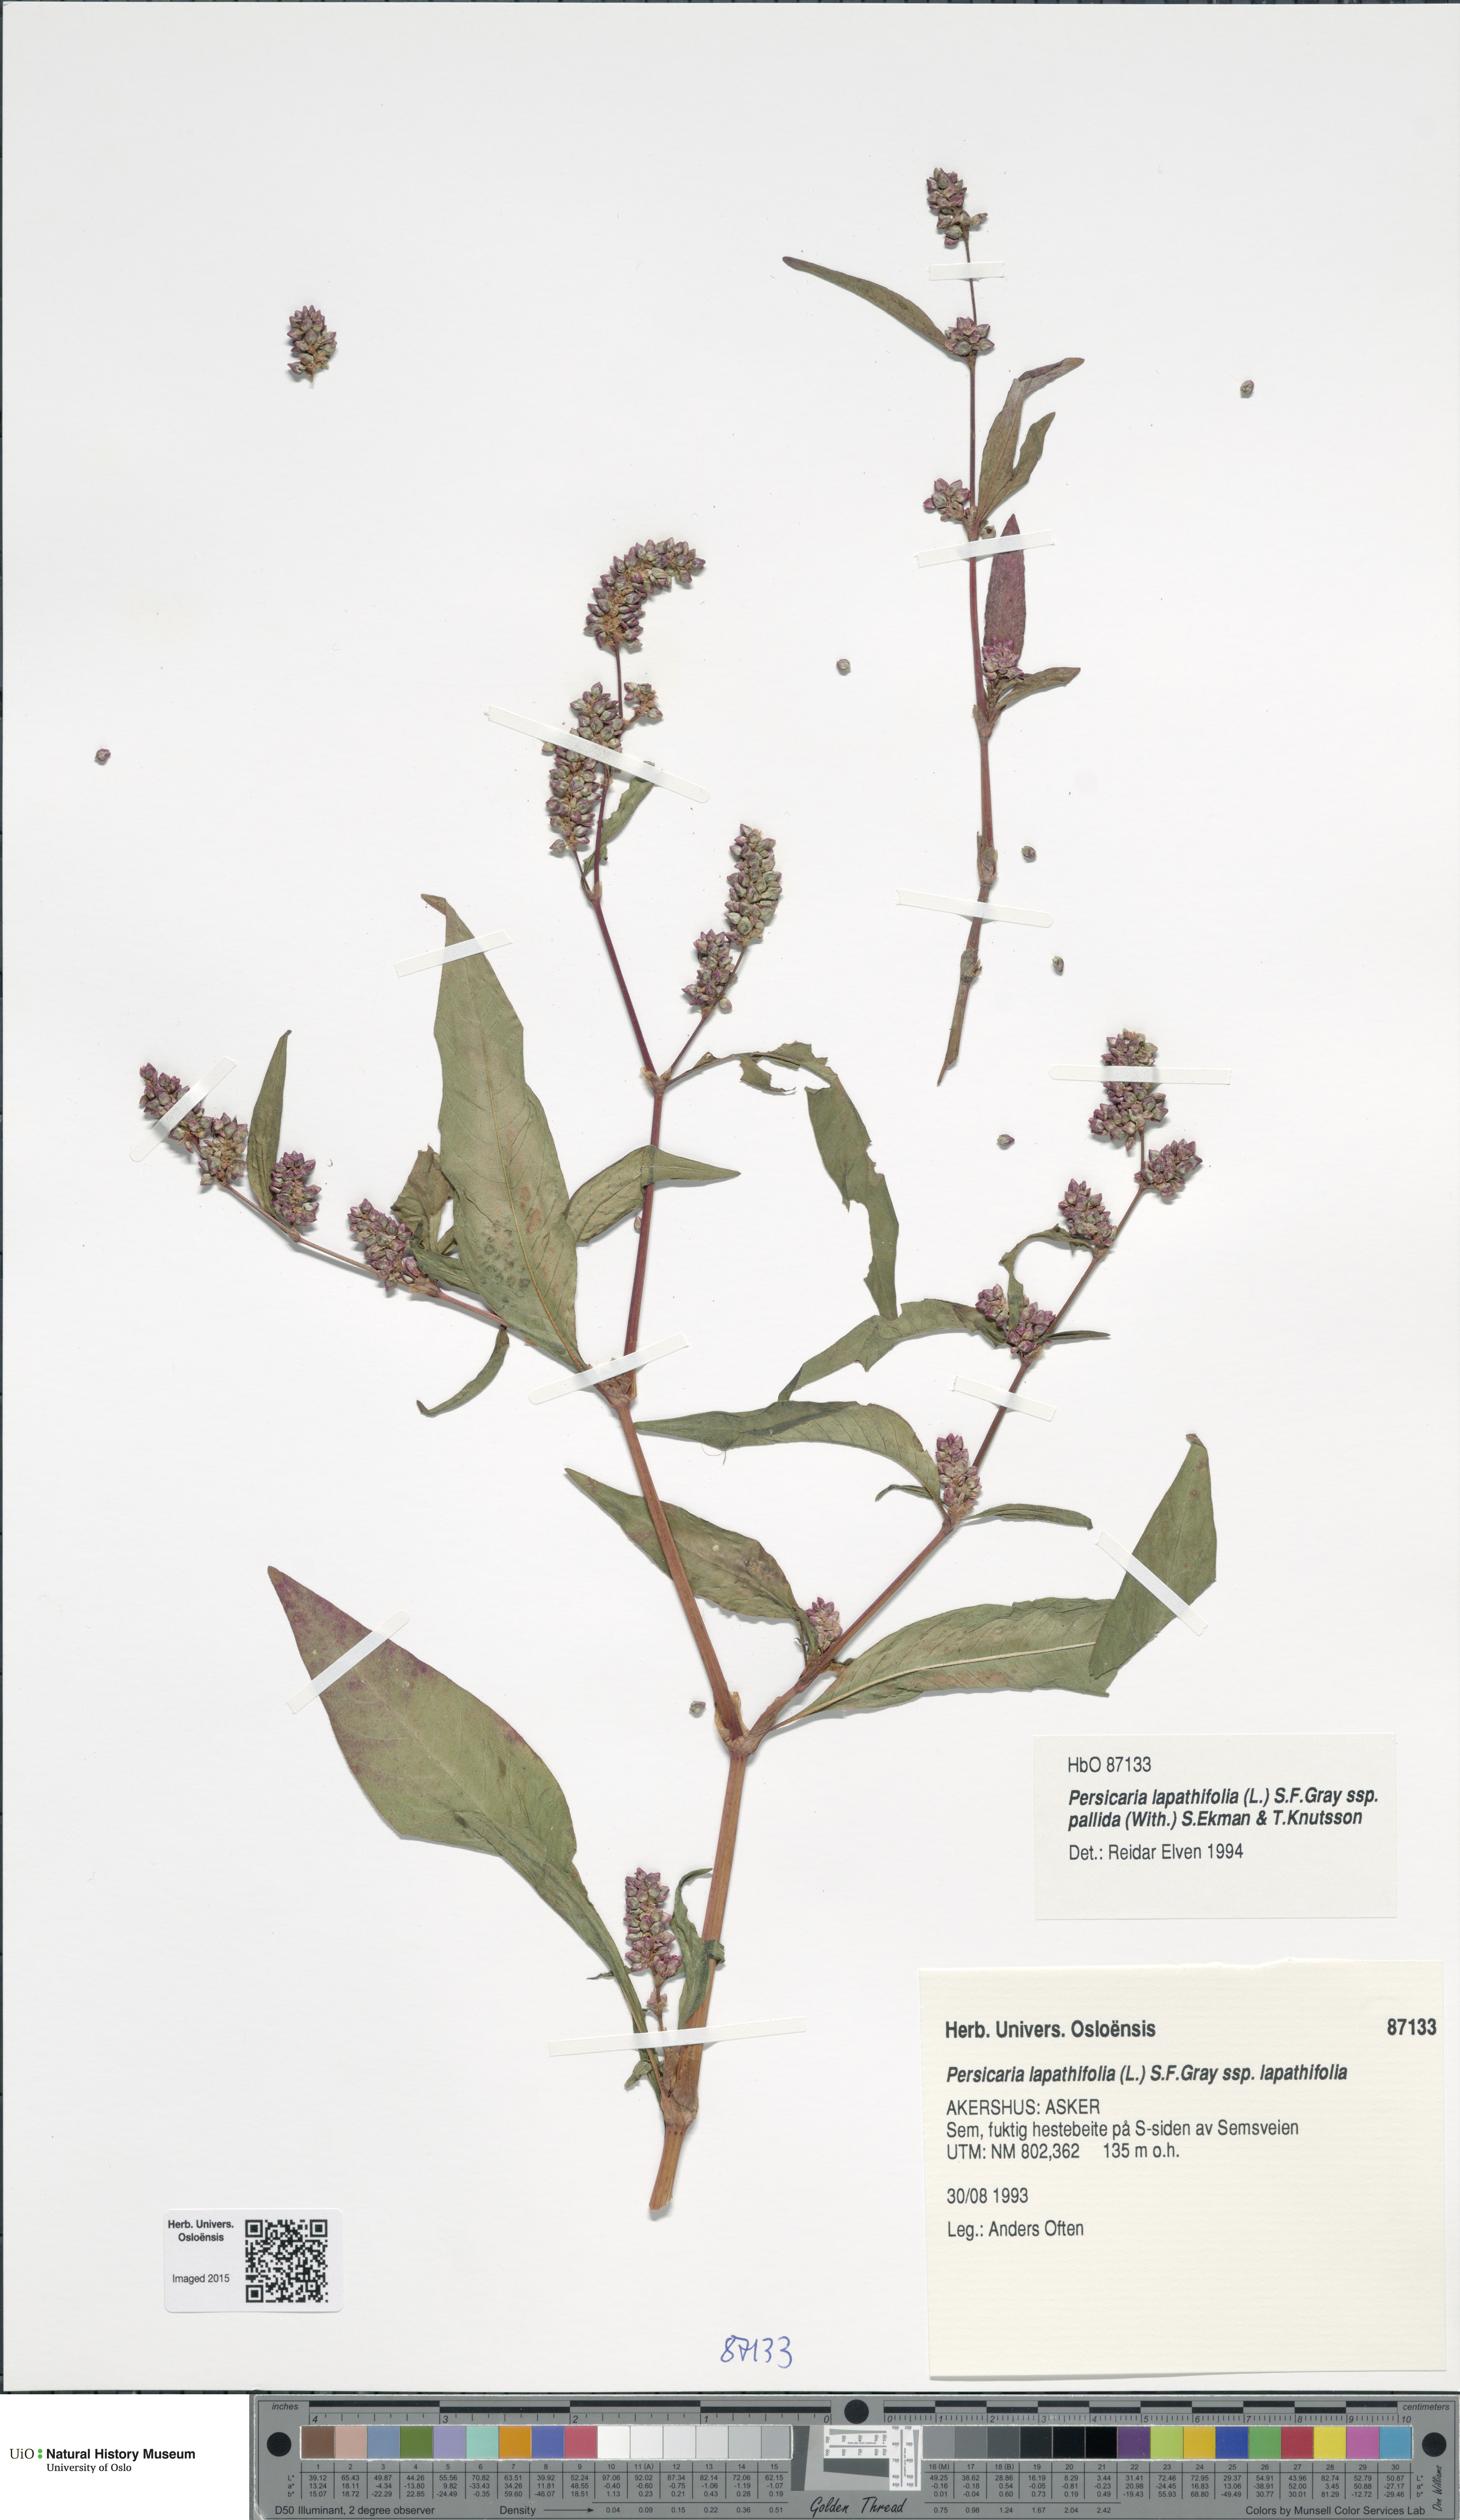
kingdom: Plantae
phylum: Tracheophyta
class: Magnoliopsida
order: Caryophyllales
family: Polygonaceae
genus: Persicaria
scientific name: Persicaria lapathifolia
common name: Curlytop knotweed
